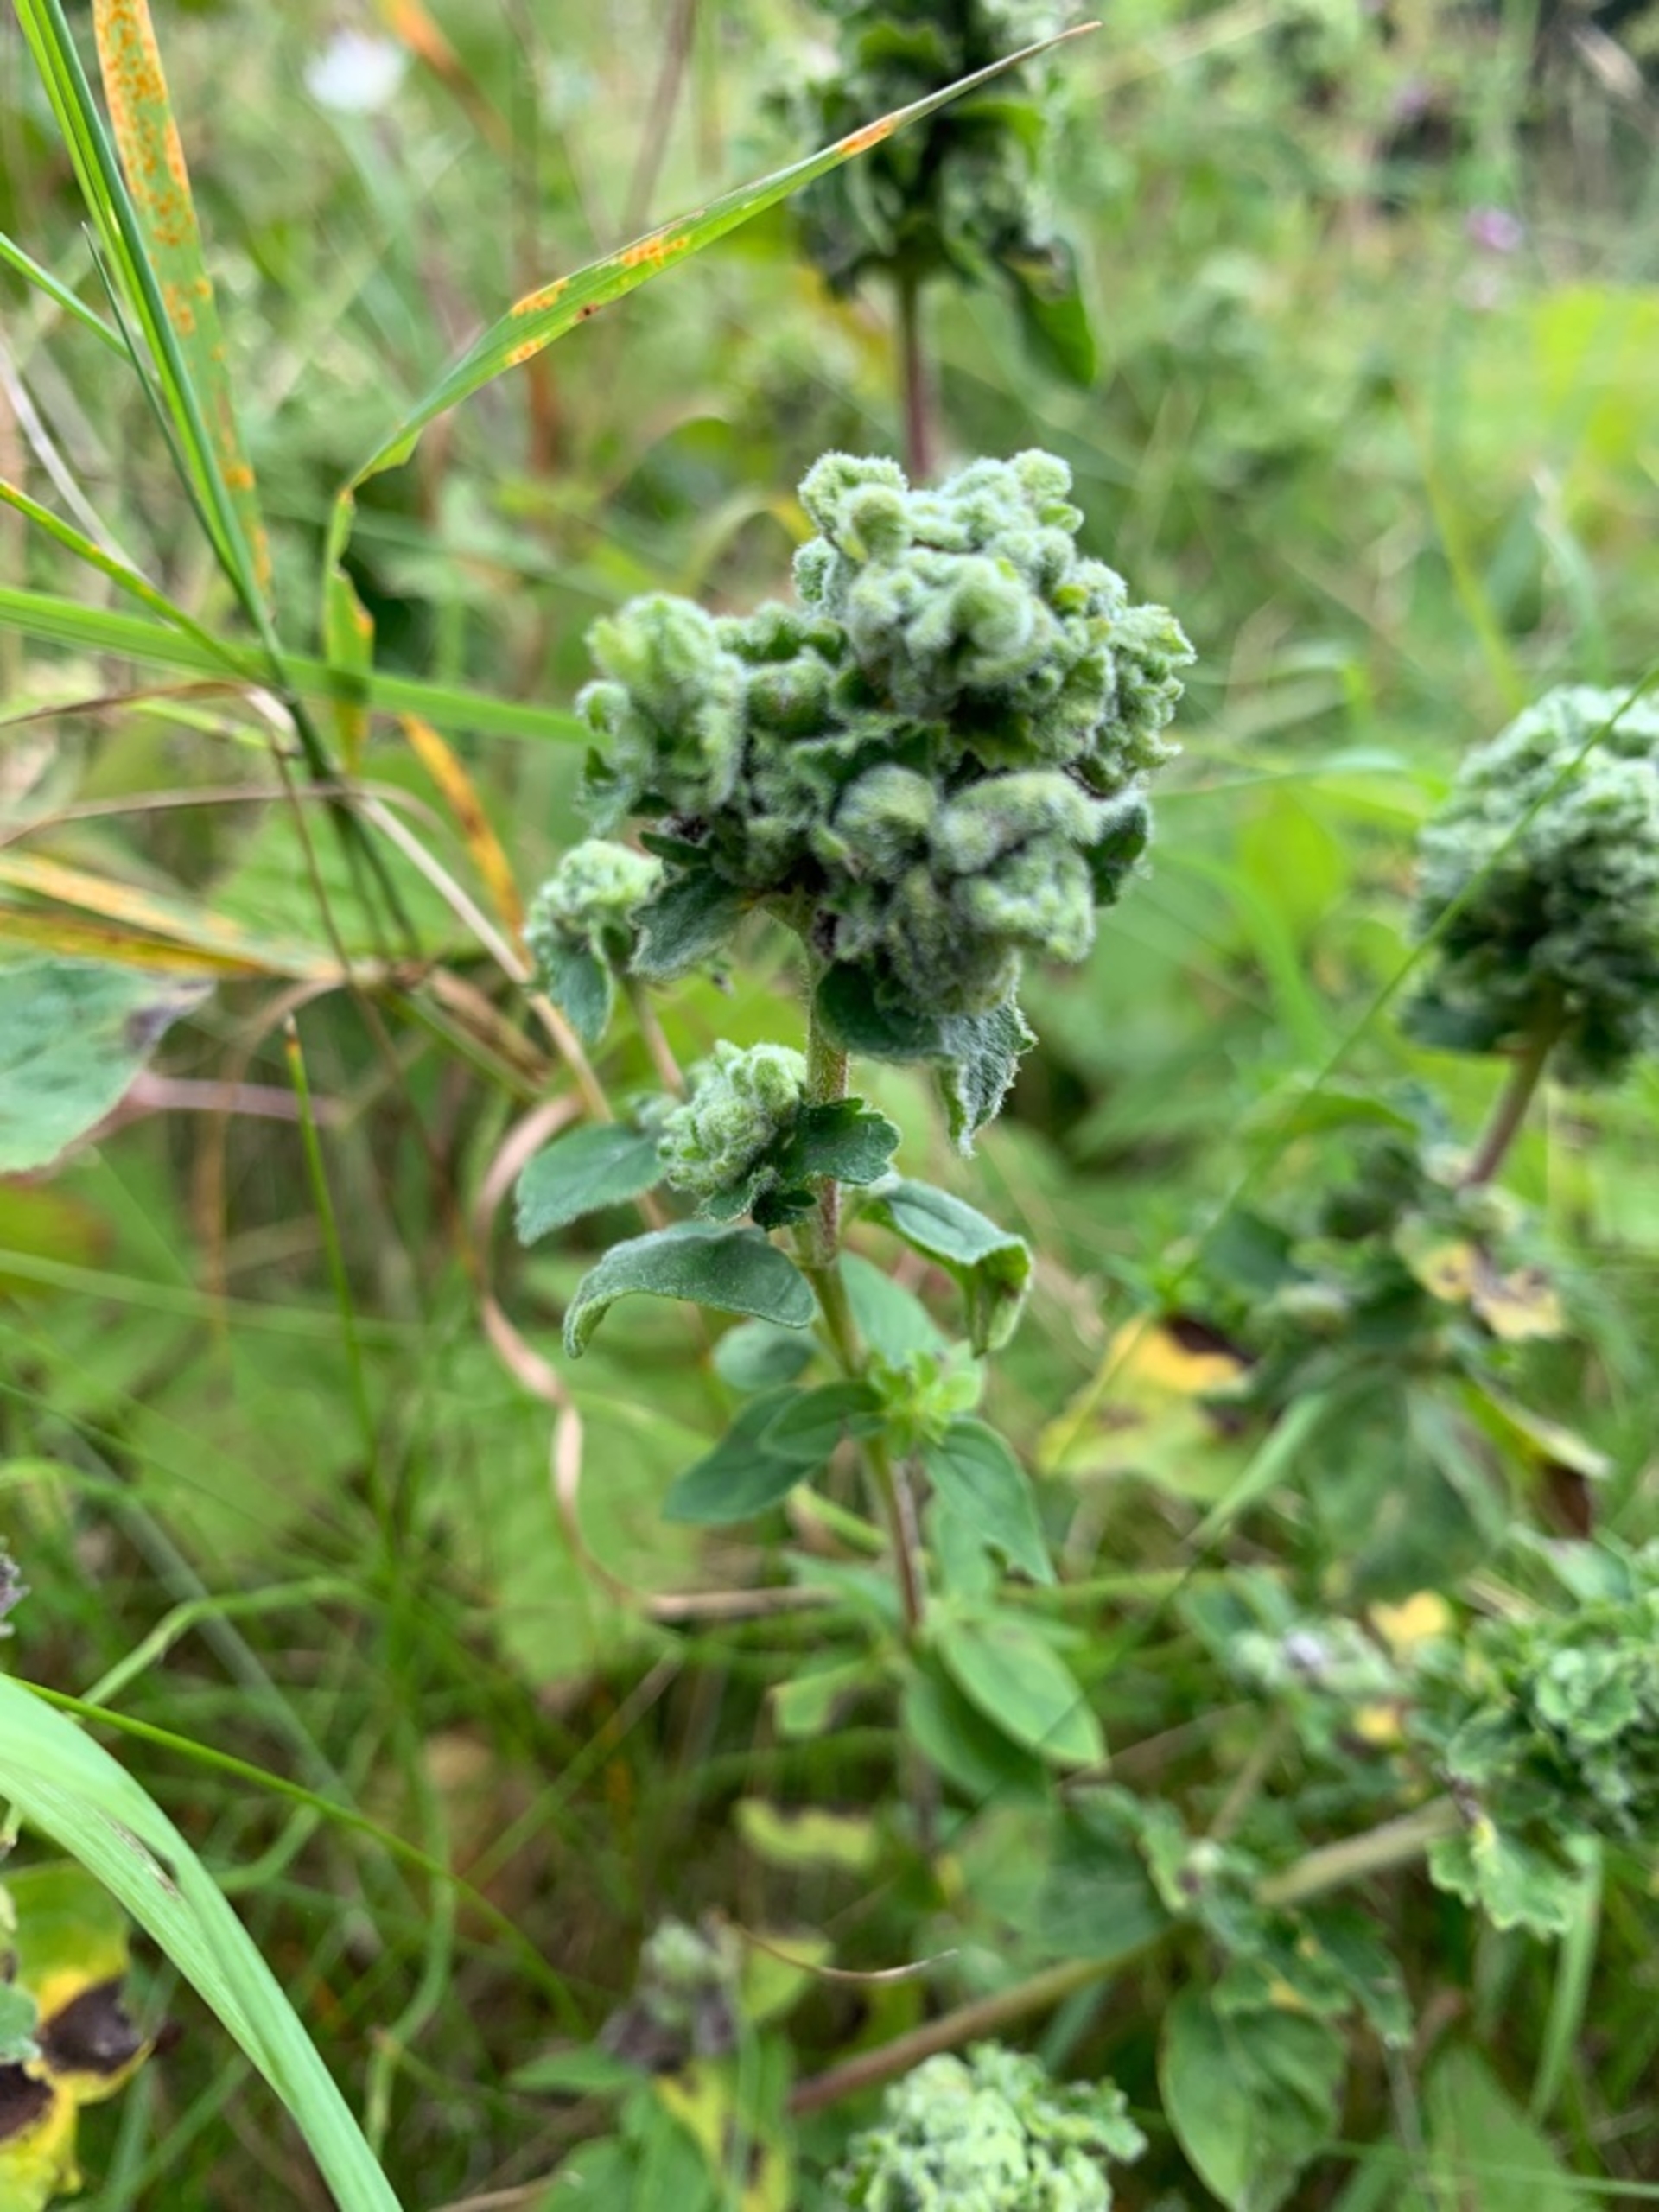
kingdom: Animalia
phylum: Arthropoda
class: Arachnida
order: Trombidiformes
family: Eriophyidae
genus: Aceria
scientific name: Aceria labiatiflorae
